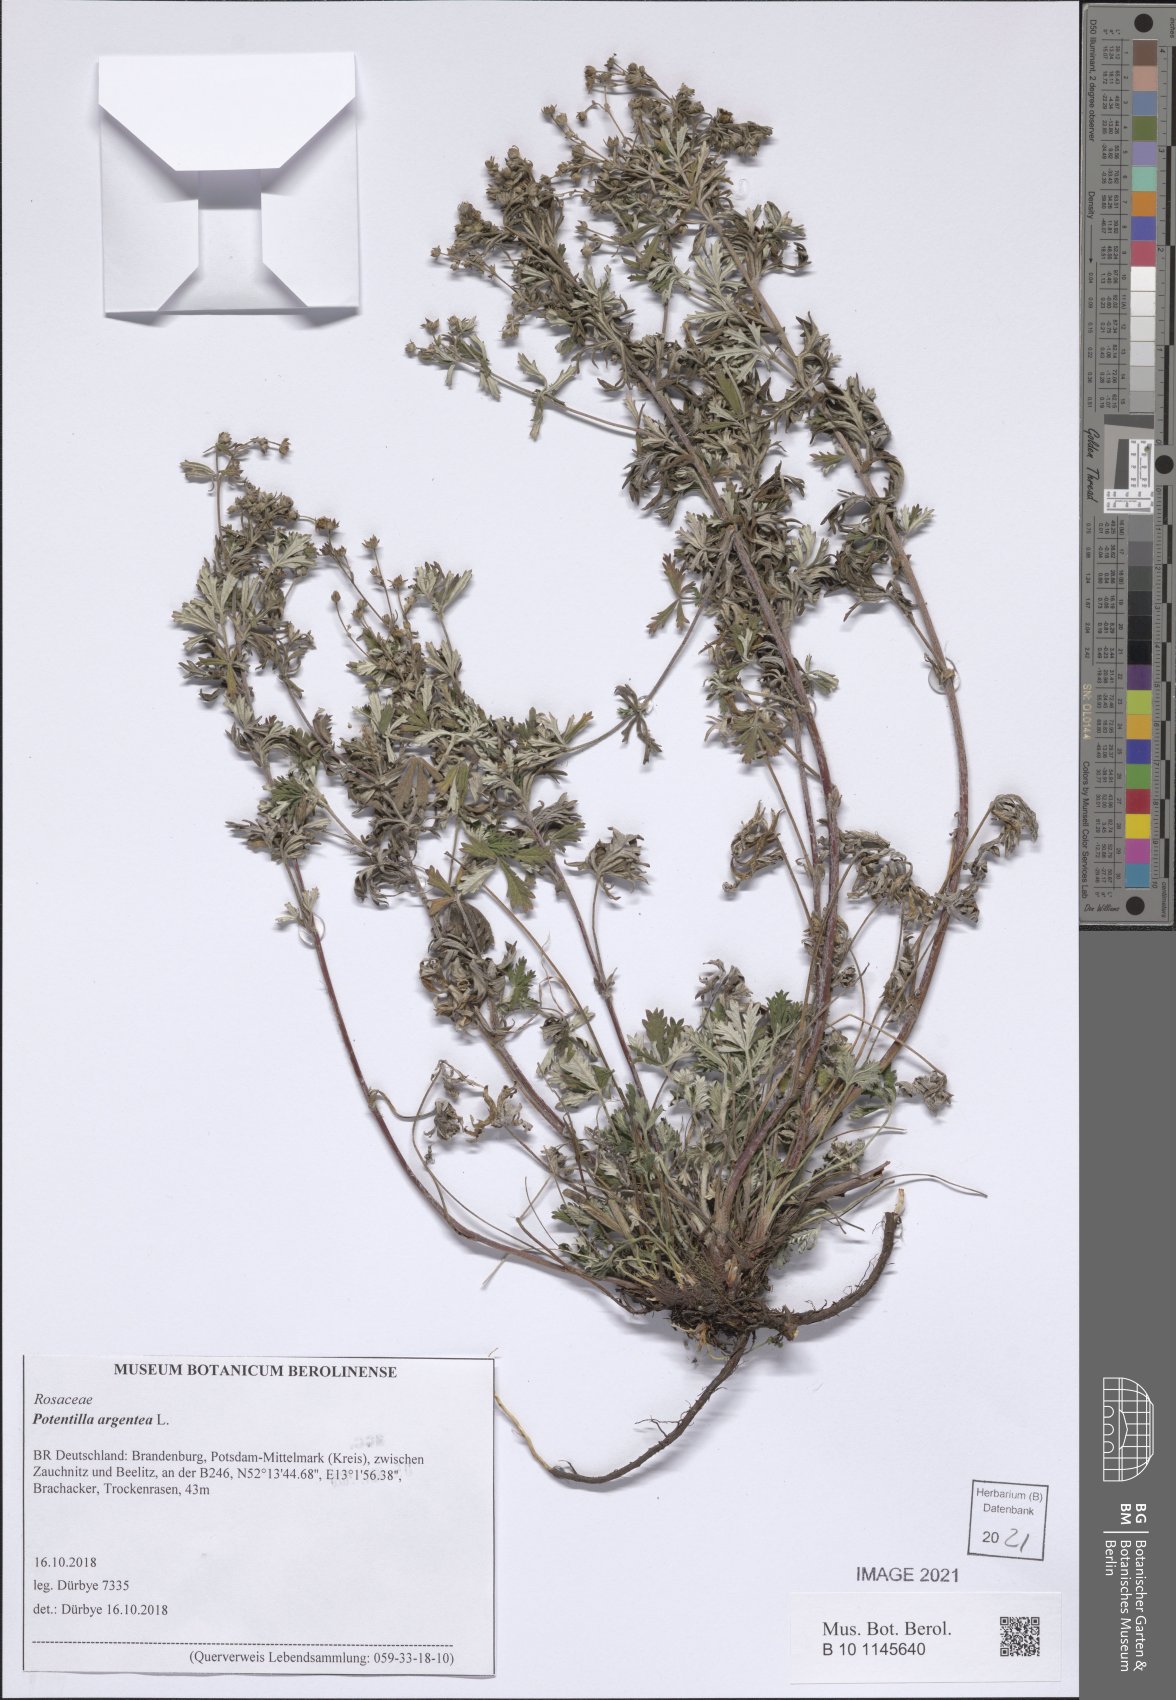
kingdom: Plantae
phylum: Tracheophyta
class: Magnoliopsida
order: Rosales
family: Rosaceae
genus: Potentilla
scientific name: Potentilla argentea
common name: Hoary cinquefoil
